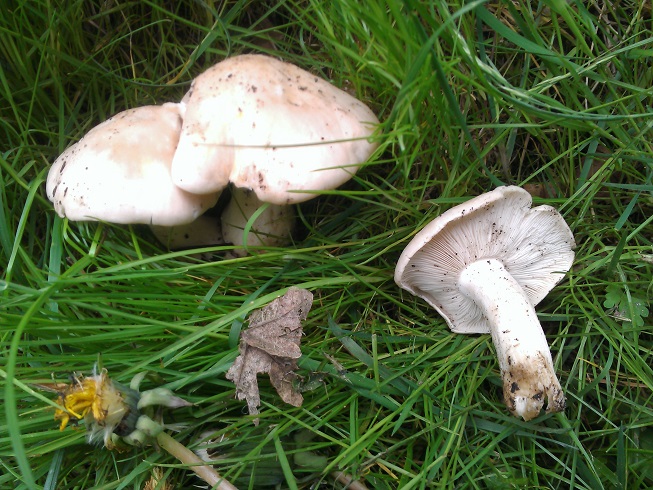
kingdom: Fungi
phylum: Basidiomycota
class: Agaricomycetes
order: Agaricales
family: Lyophyllaceae
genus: Calocybe
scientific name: Calocybe gambosa
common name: vårmusseron
